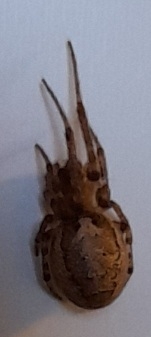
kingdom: Animalia
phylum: Arthropoda
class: Arachnida
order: Araneae
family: Araneidae
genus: Zygiella
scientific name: Zygiella x-notata
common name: Grå sektoredderkop
